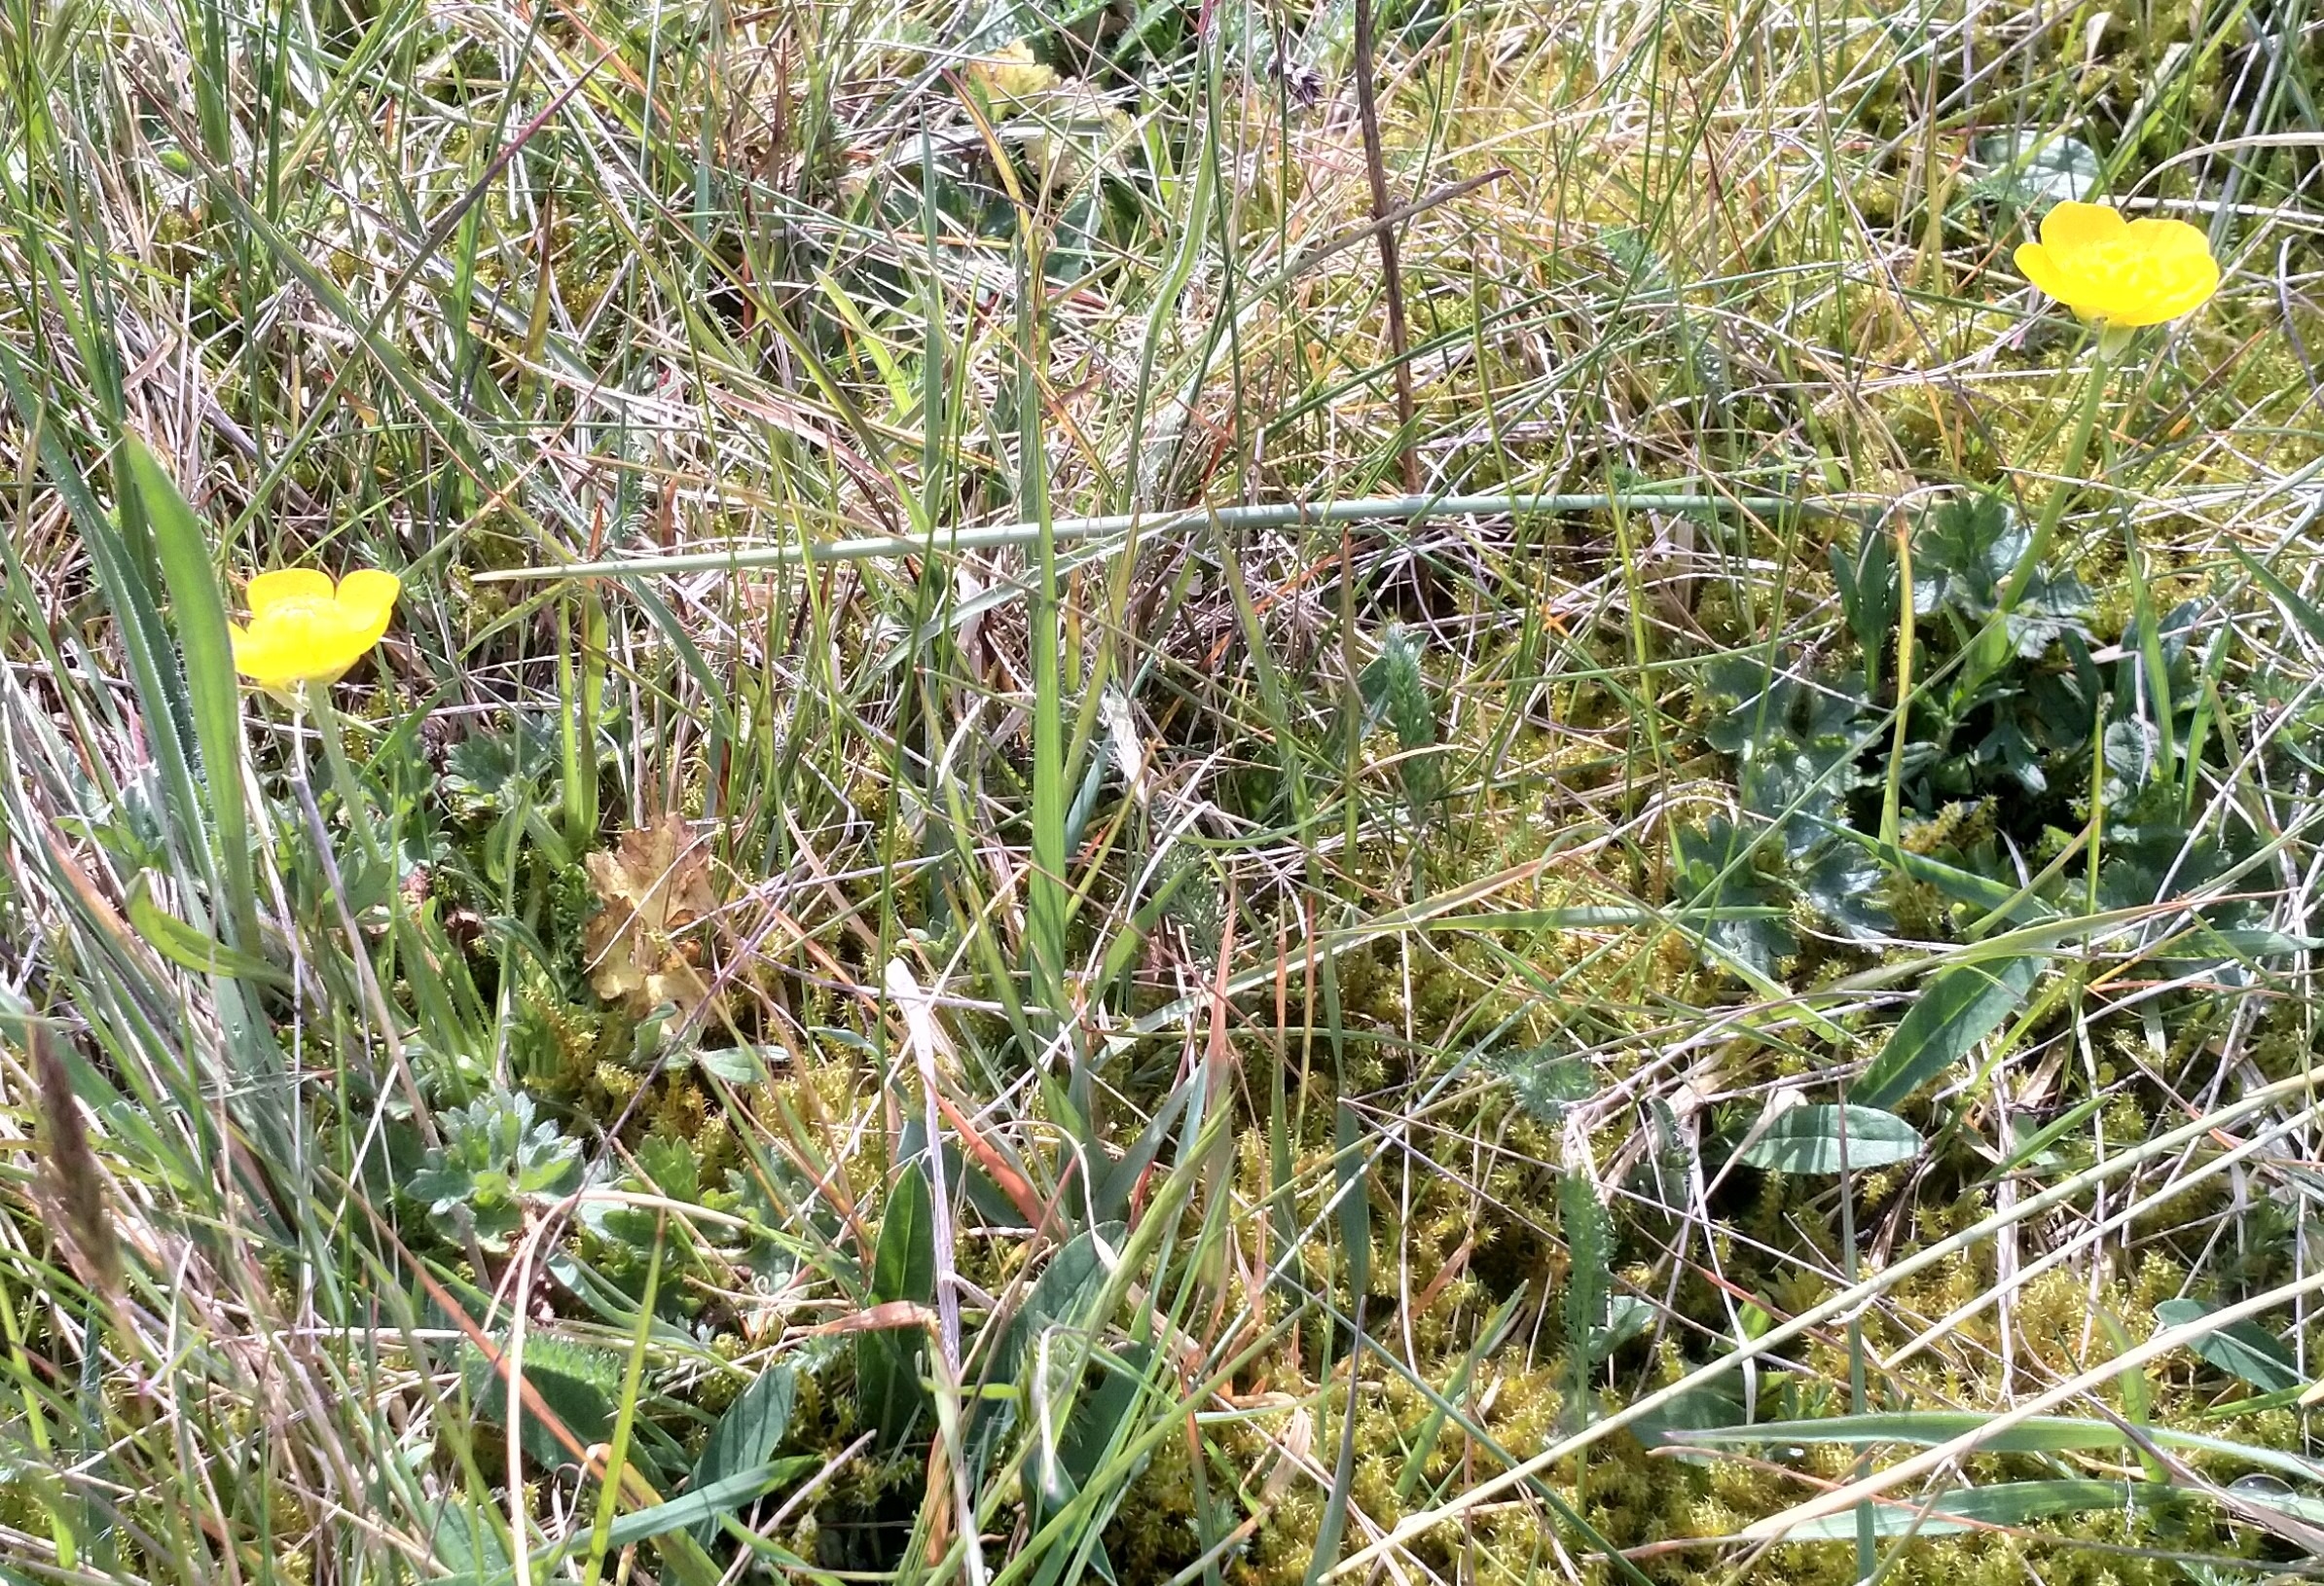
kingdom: Plantae
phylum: Tracheophyta
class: Magnoliopsida
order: Ranunculales
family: Ranunculaceae
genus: Ranunculus
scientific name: Ranunculus bulbosus
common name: Knold-ranunkel
